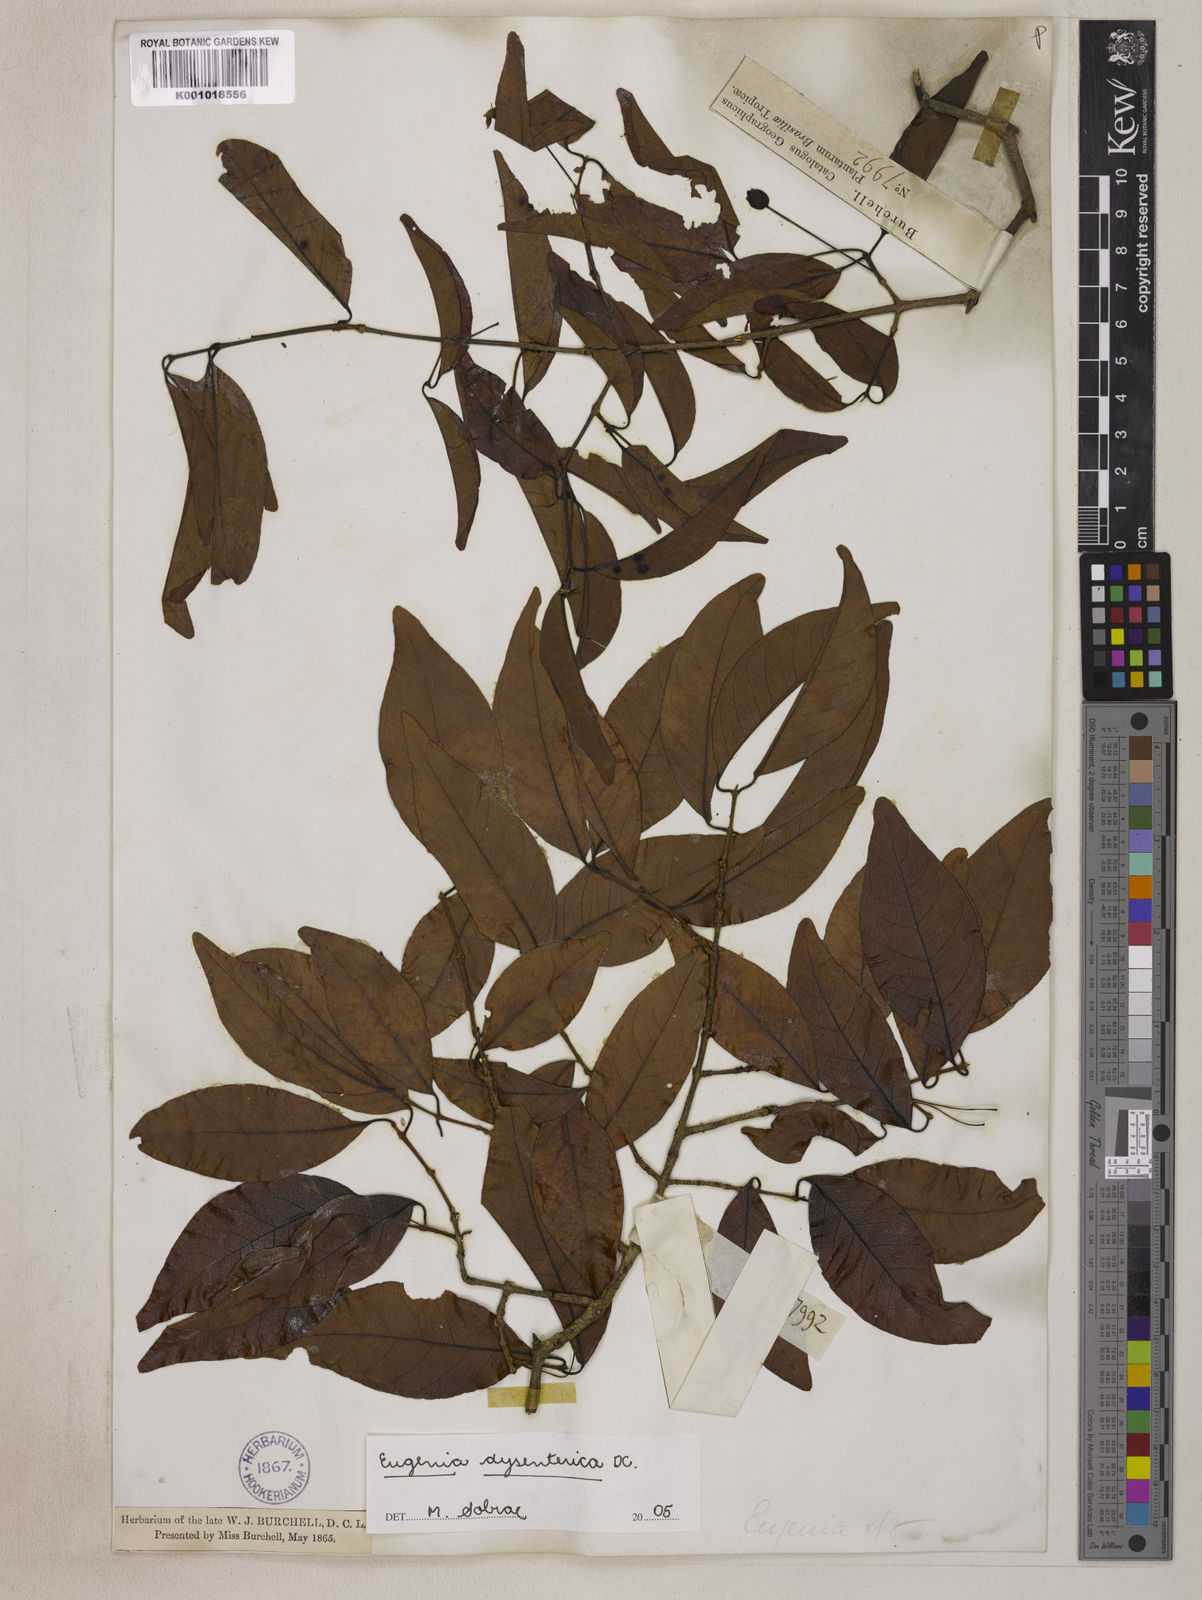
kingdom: Plantae
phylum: Tracheophyta
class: Magnoliopsida
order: Myrtales
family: Myrtaceae
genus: Eugenia
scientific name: Eugenia dysenterica
